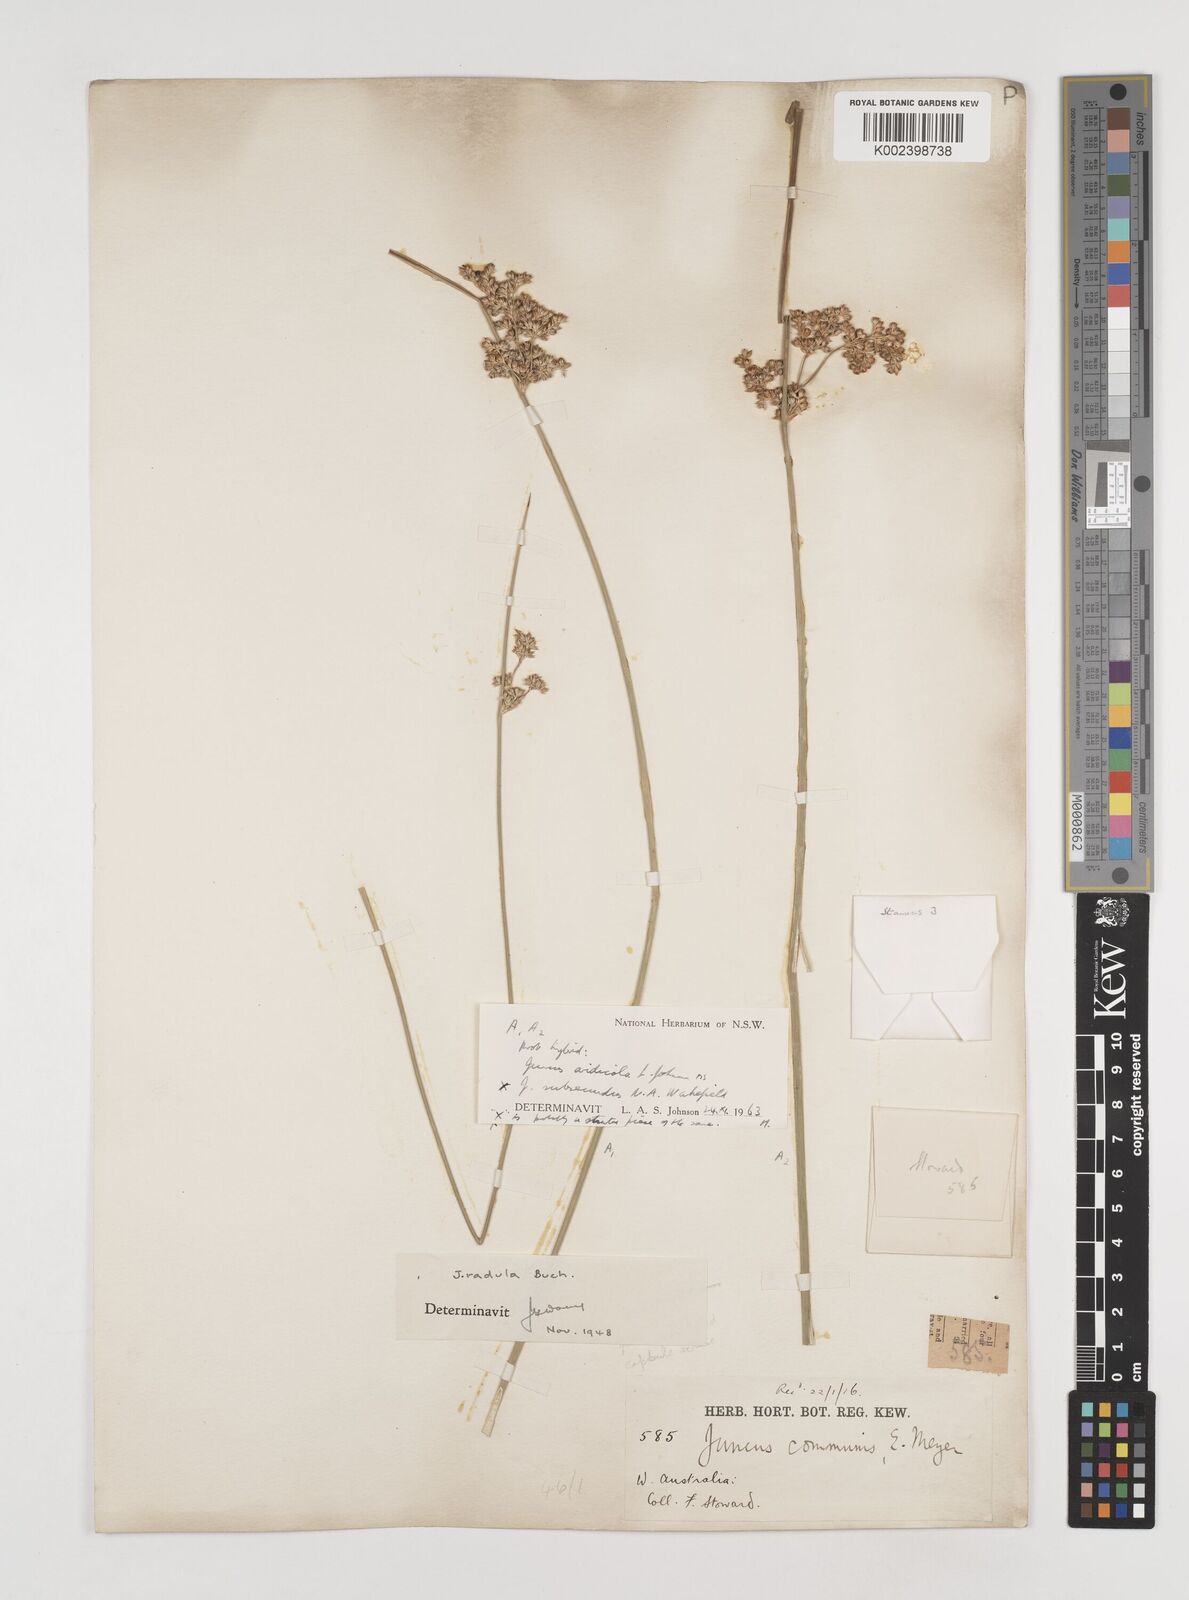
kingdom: Plantae
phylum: Tracheophyta
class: Liliopsida
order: Poales
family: Juncaceae
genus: Juncus
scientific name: Juncus aridicola
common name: Tussock rush
